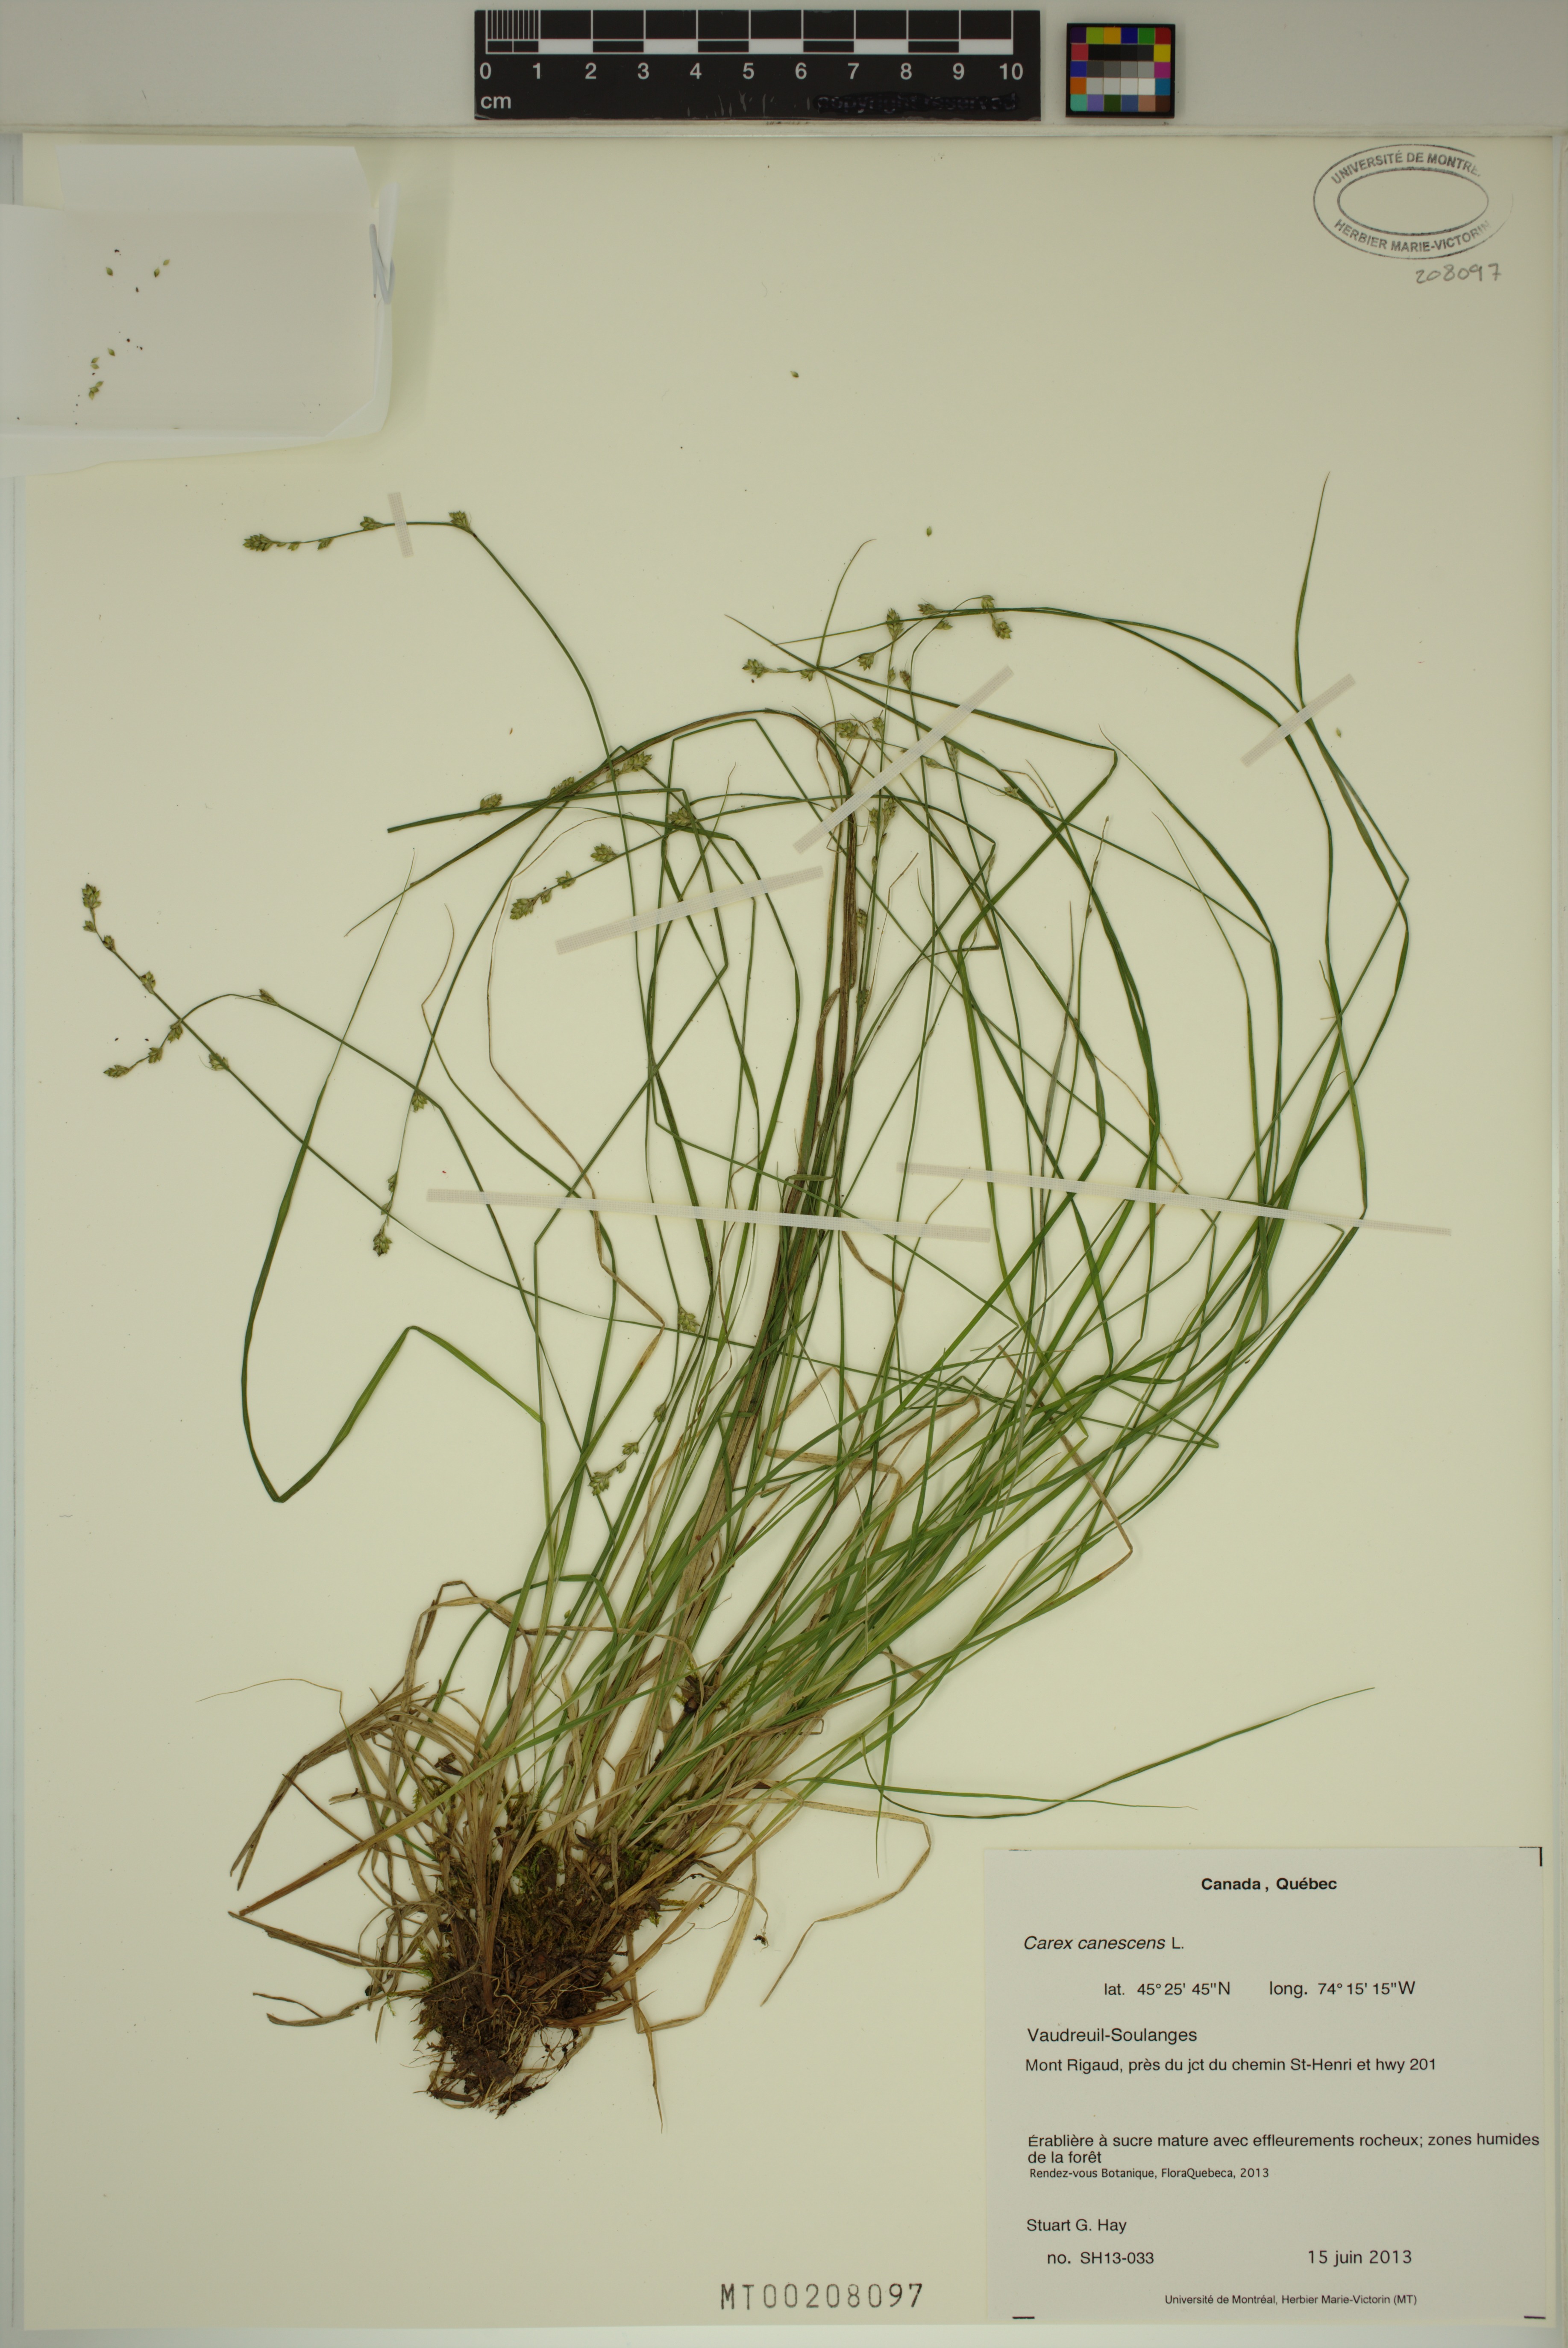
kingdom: Plantae
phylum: Tracheophyta
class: Liliopsida
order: Poales
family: Cyperaceae
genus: Carex
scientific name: Carex canescens
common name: White sedge
